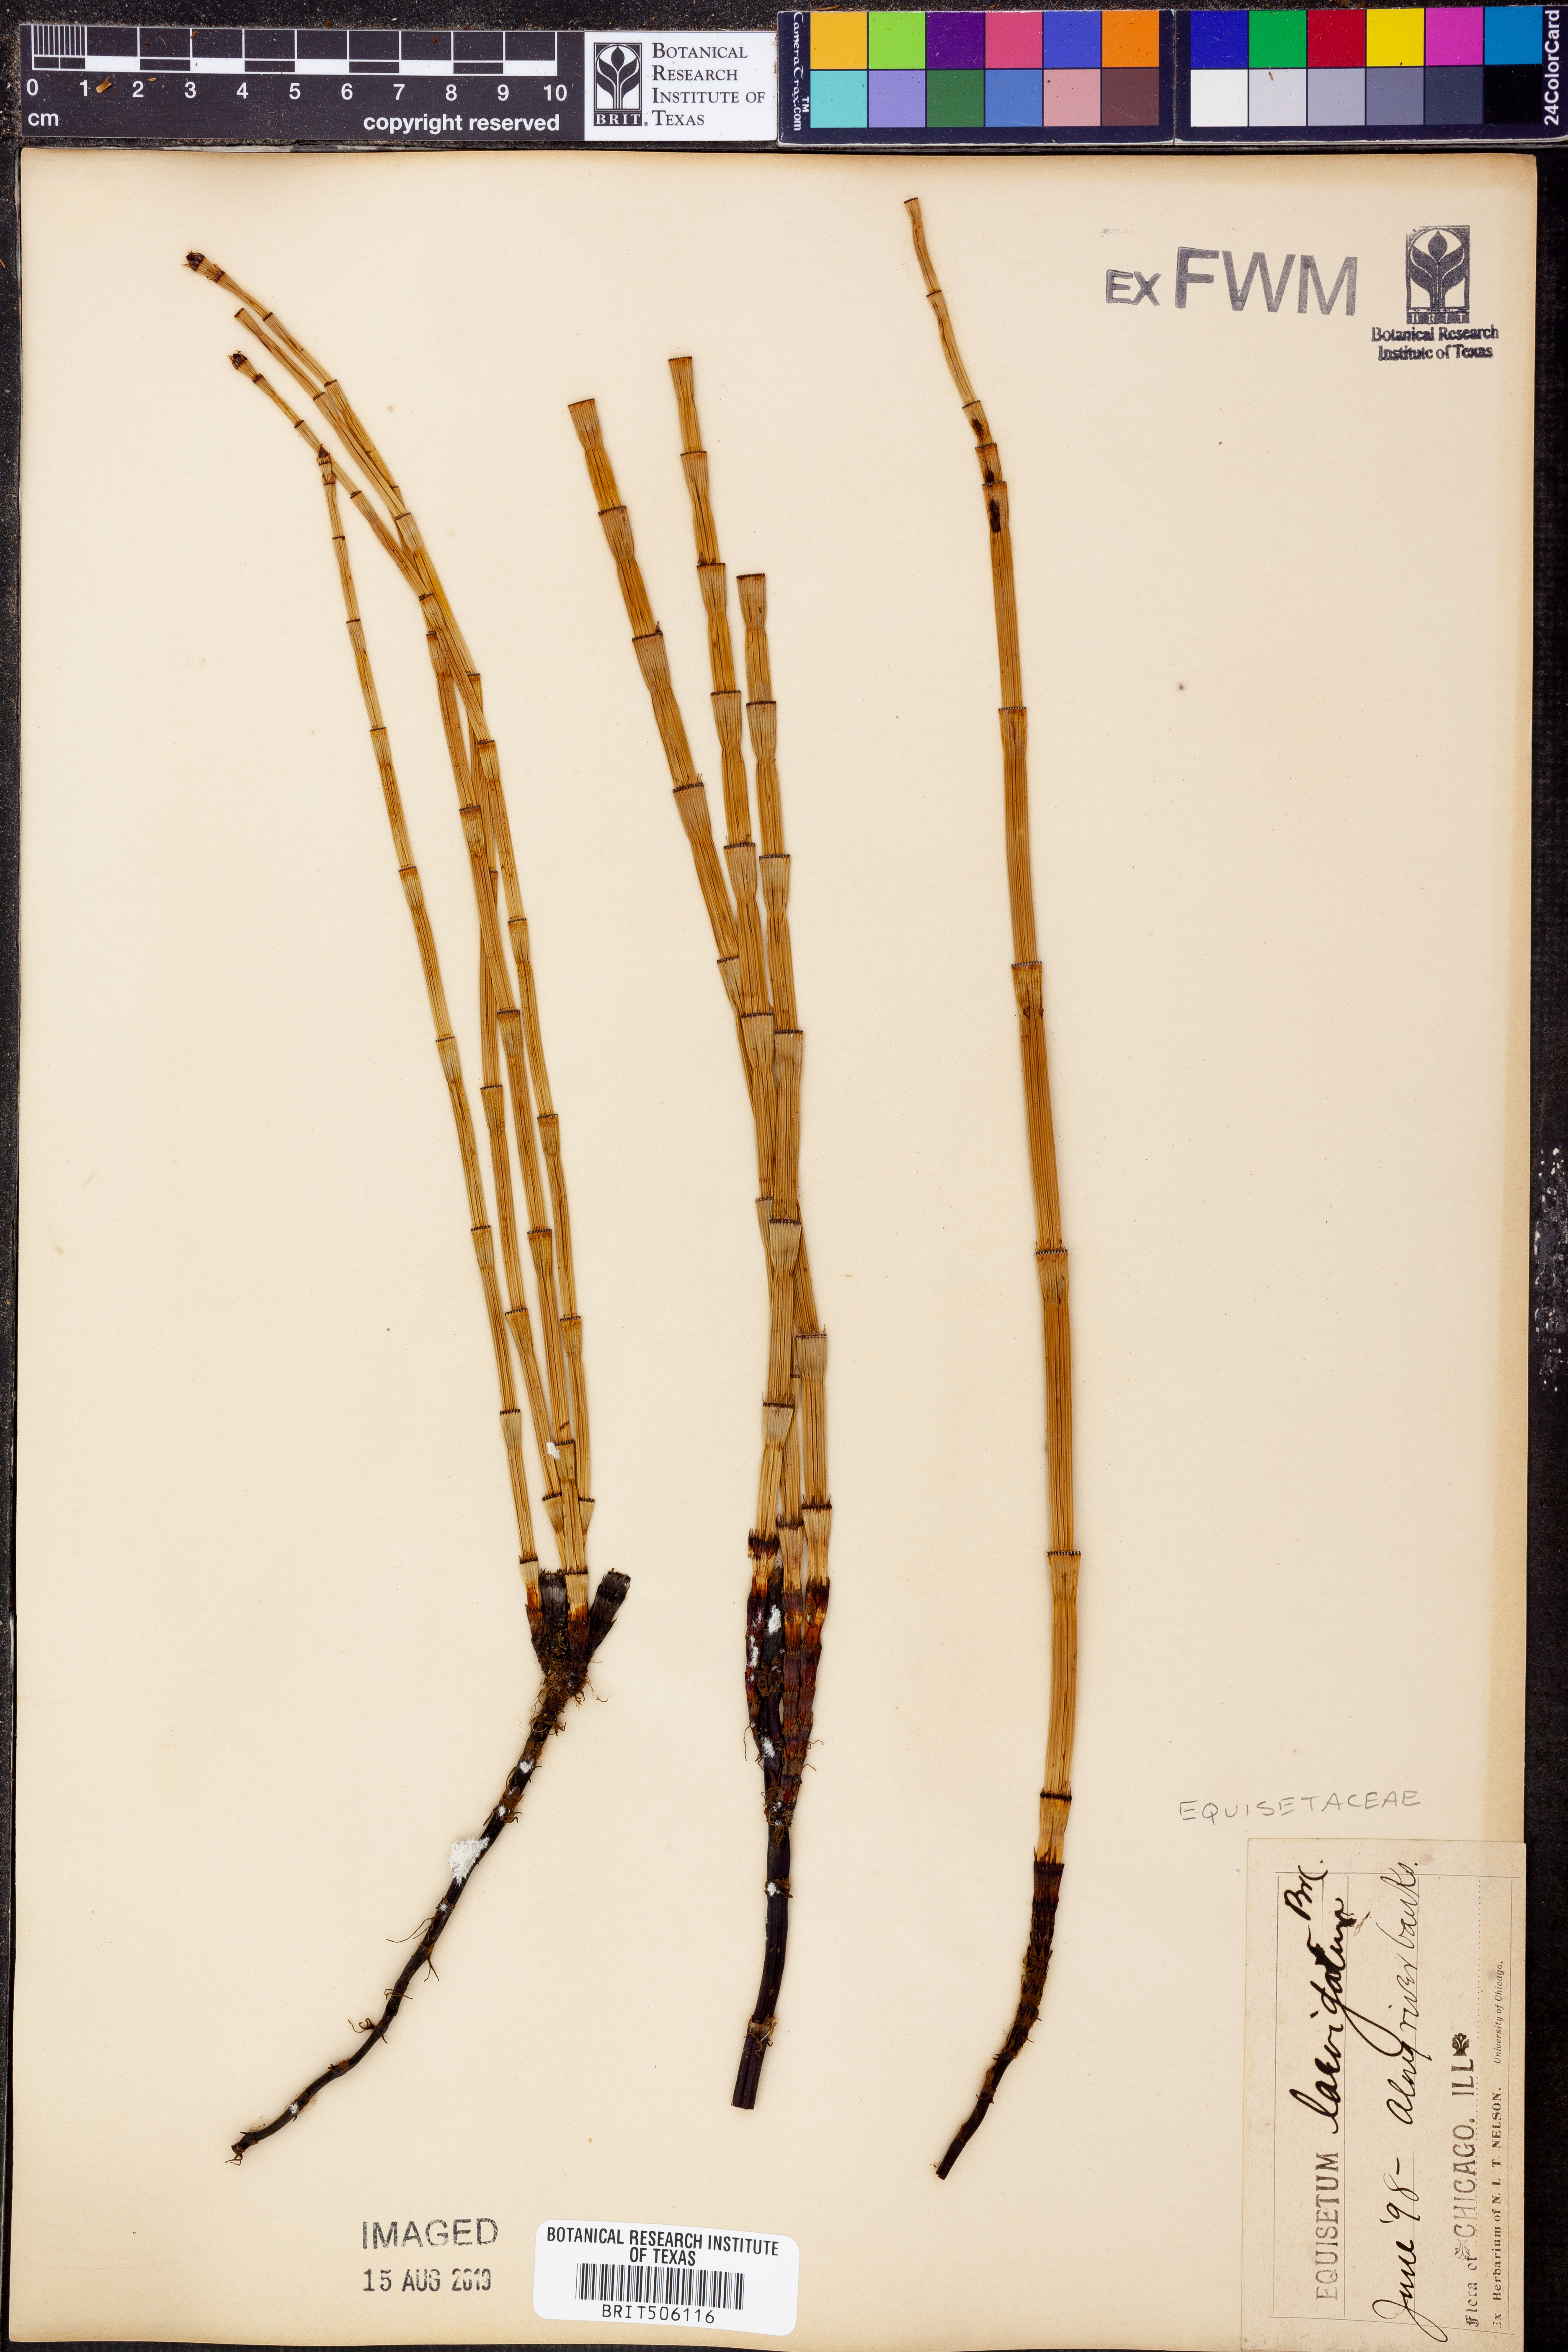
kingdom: Plantae
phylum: Tracheophyta
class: Polypodiopsida
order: Equisetales
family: Equisetaceae
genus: Equisetum
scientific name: Equisetum laevigatum
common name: Smooth scouring-rush
